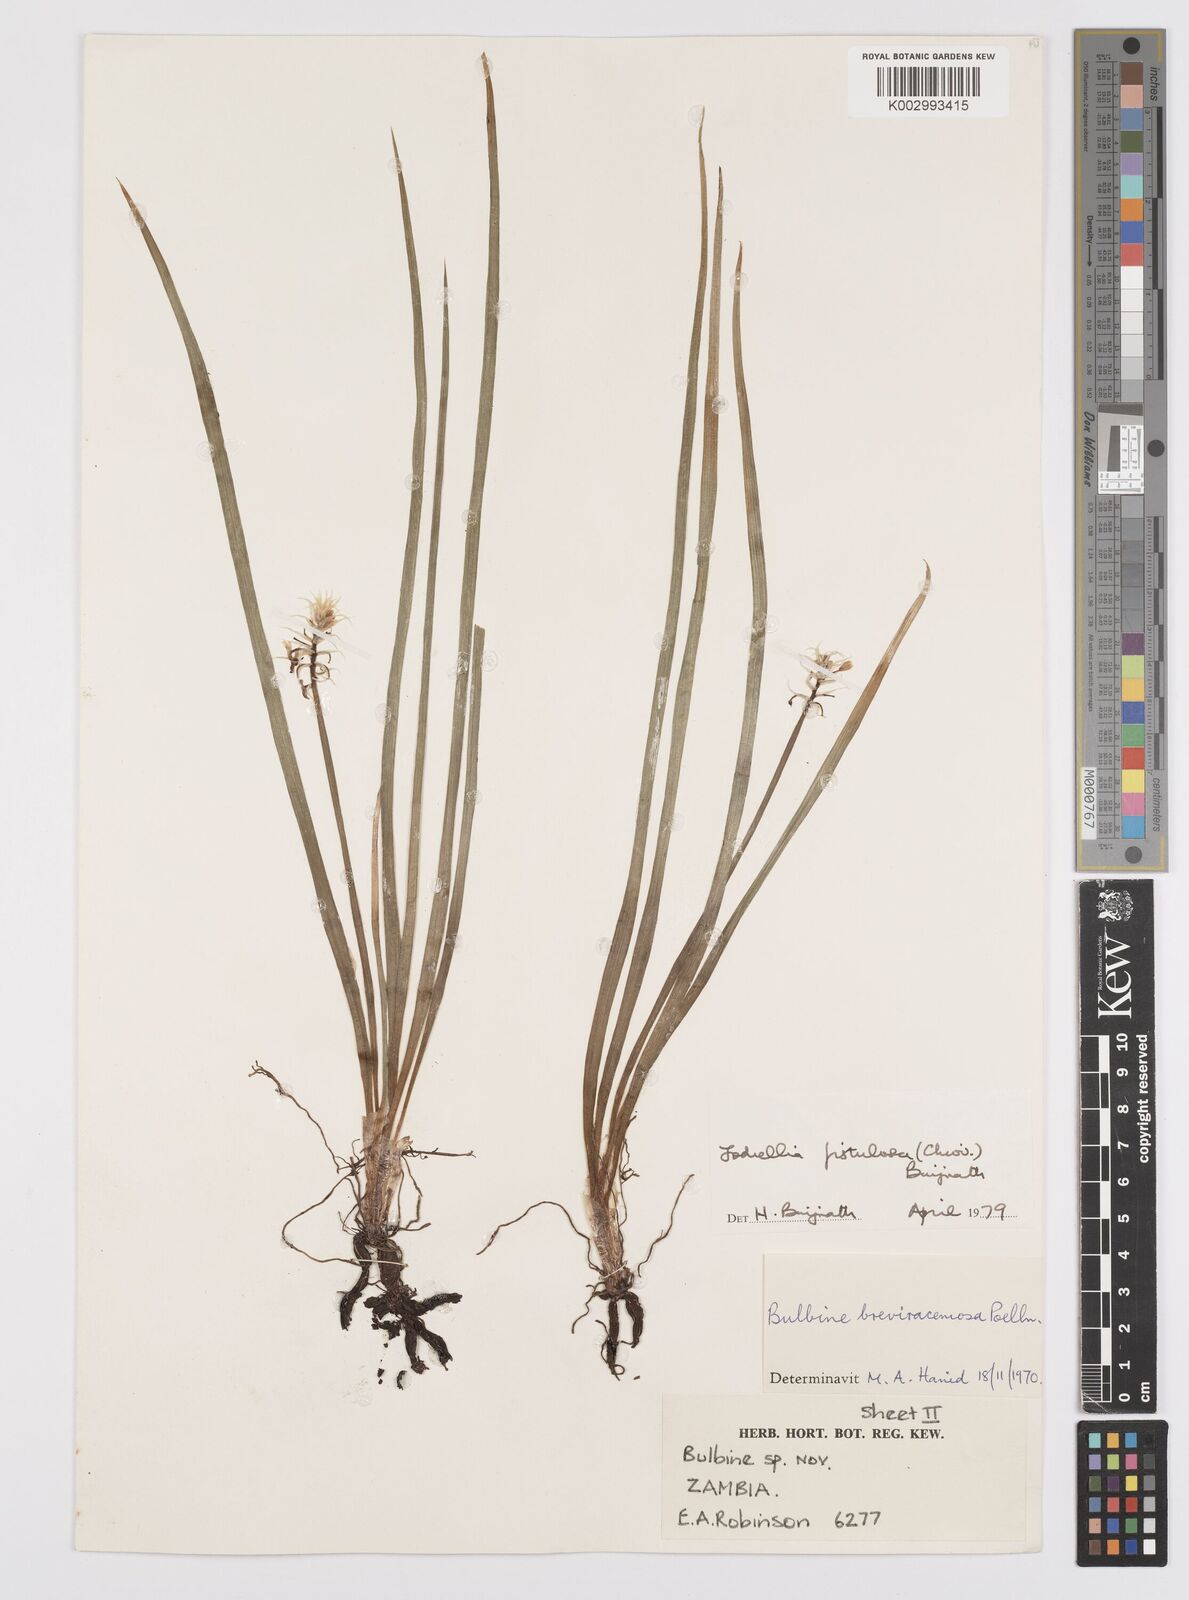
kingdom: Plantae
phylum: Tracheophyta
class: Liliopsida
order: Asparagales
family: Asphodelaceae
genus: Bulbine
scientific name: Bulbine fistulosa
